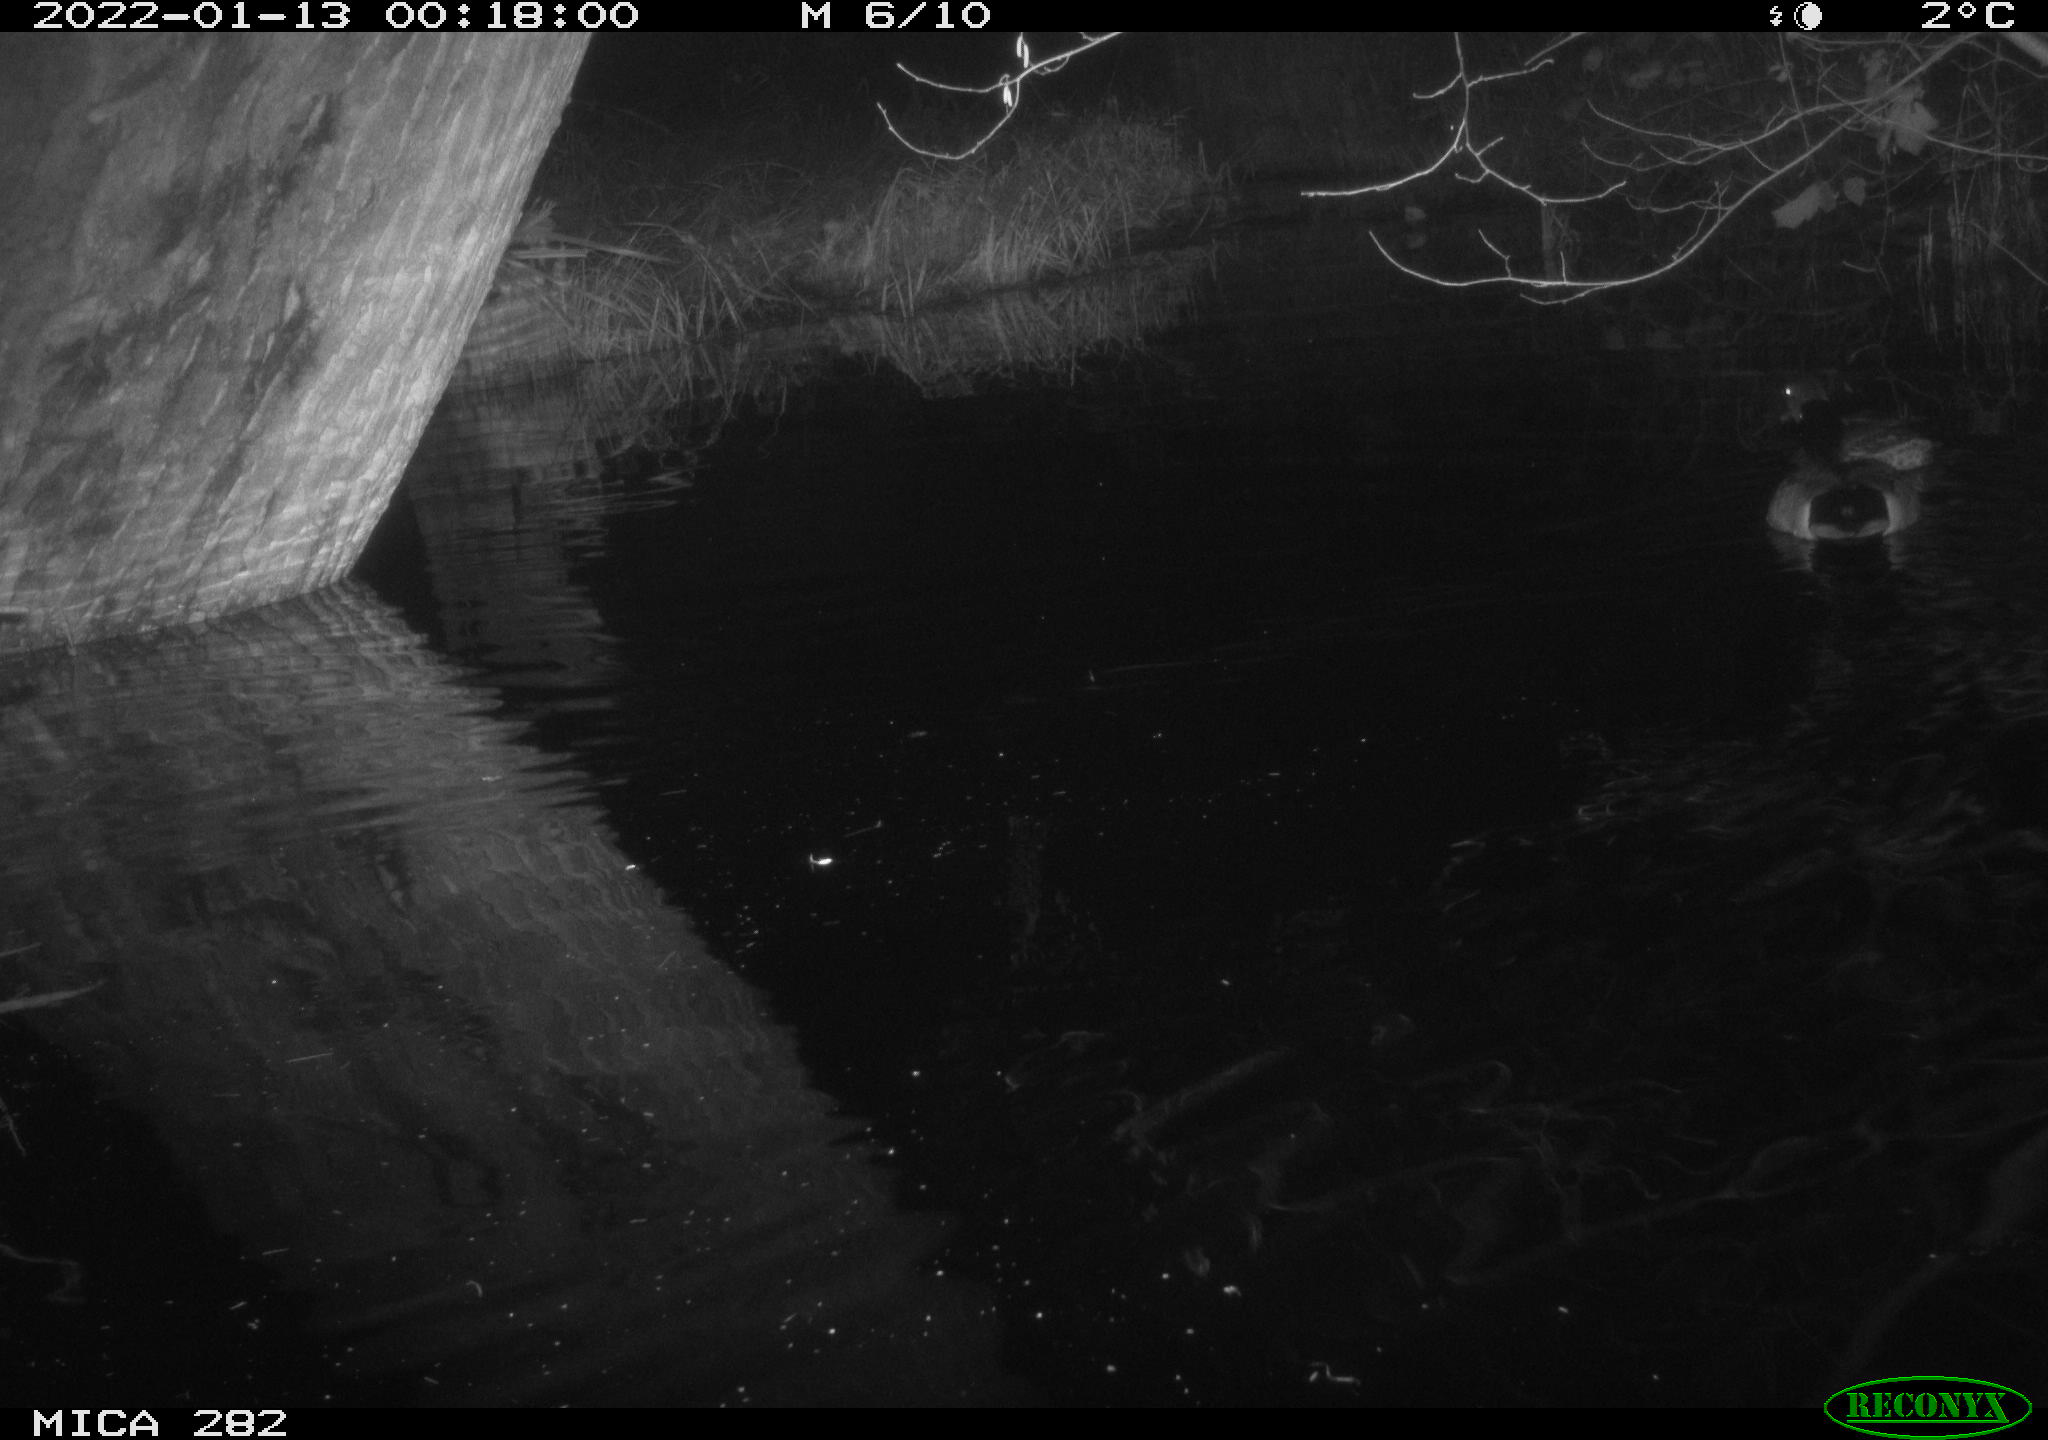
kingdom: Animalia
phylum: Chordata
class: Aves
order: Anseriformes
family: Anatidae
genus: Anas
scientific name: Anas platyrhynchos
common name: Mallard
